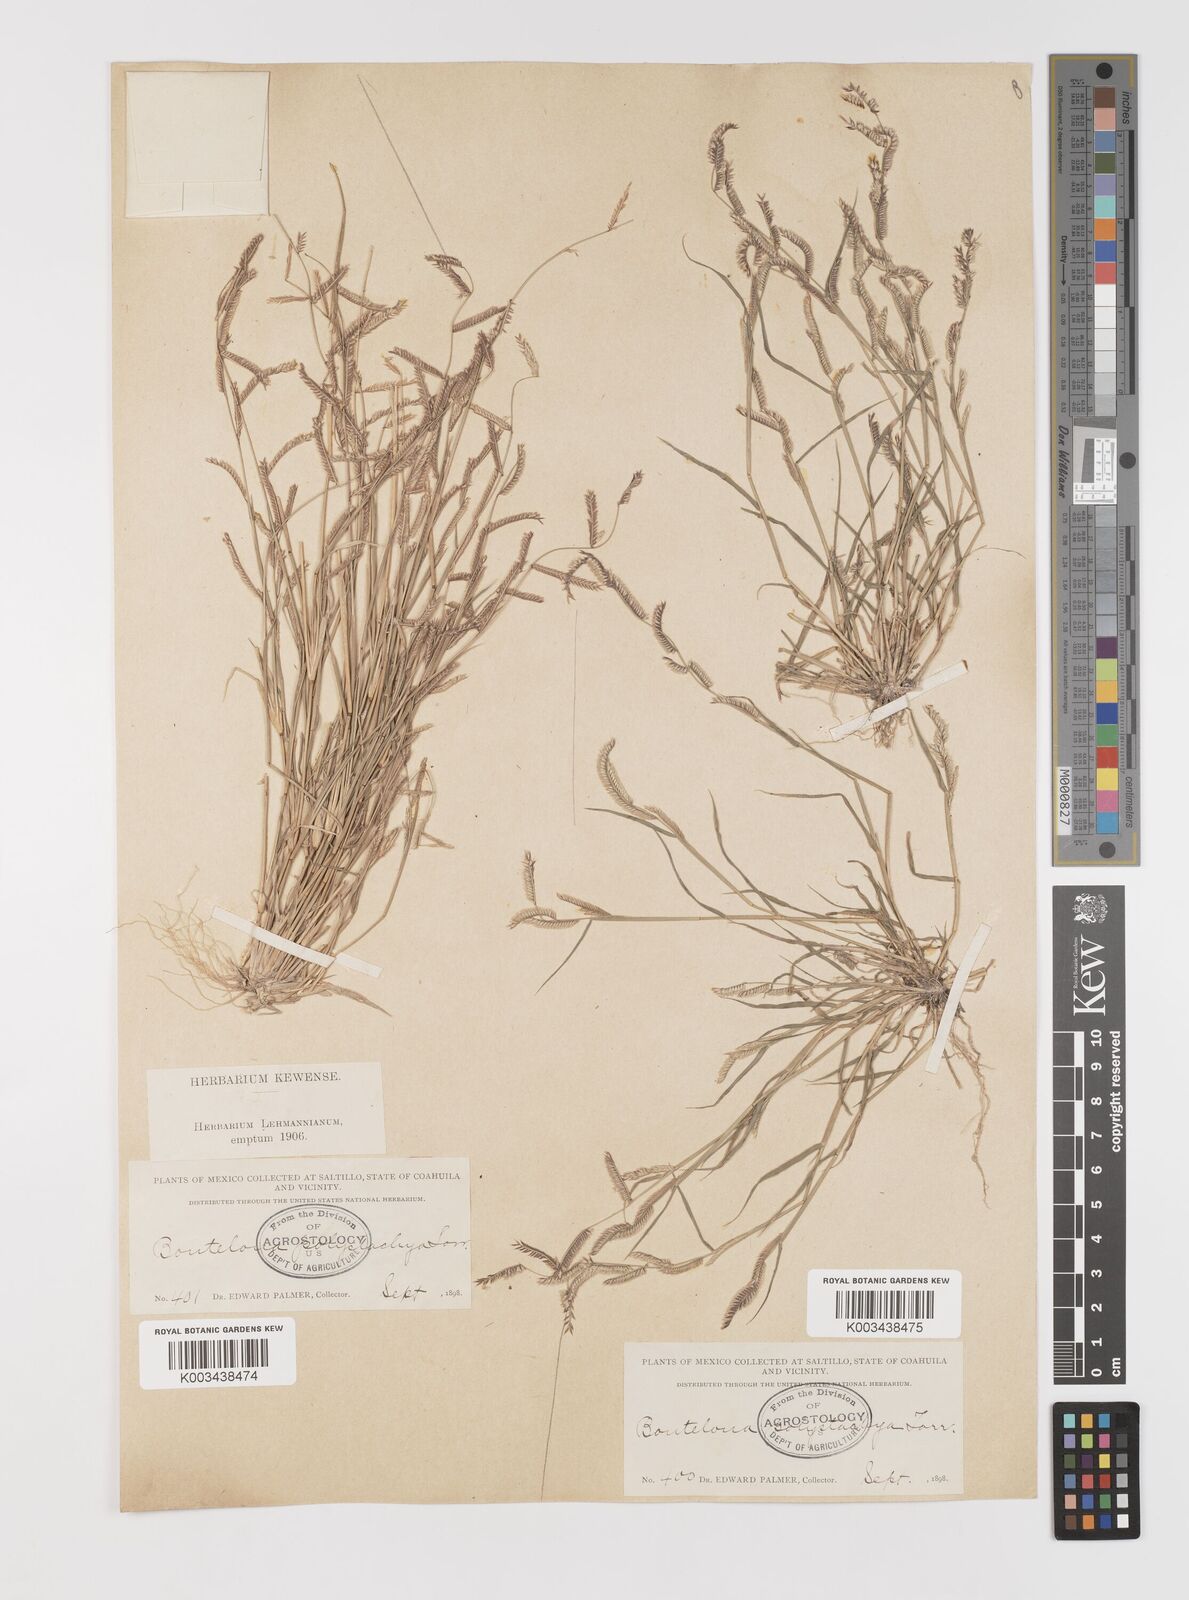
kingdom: Plantae
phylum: Tracheophyta
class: Liliopsida
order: Poales
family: Poaceae
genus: Bouteloua
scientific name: Bouteloua
